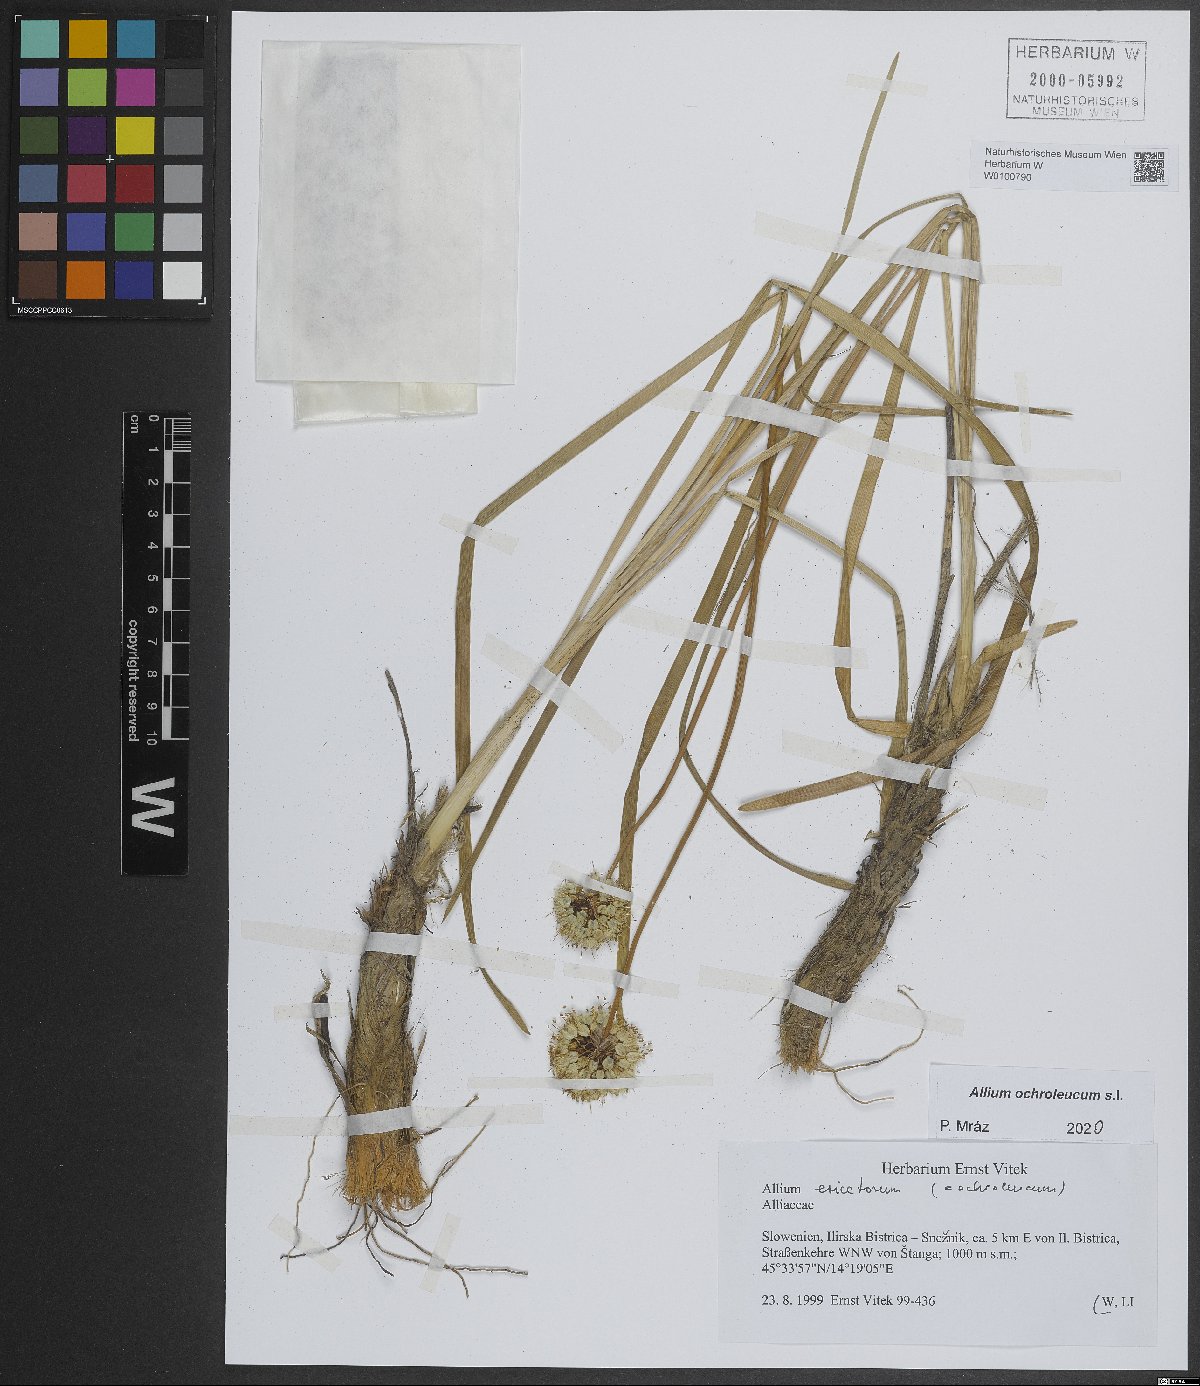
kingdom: Plantae
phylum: Tracheophyta
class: Liliopsida
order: Asparagales
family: Amaryllidaceae
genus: Allium
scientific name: Allium ericetorum
